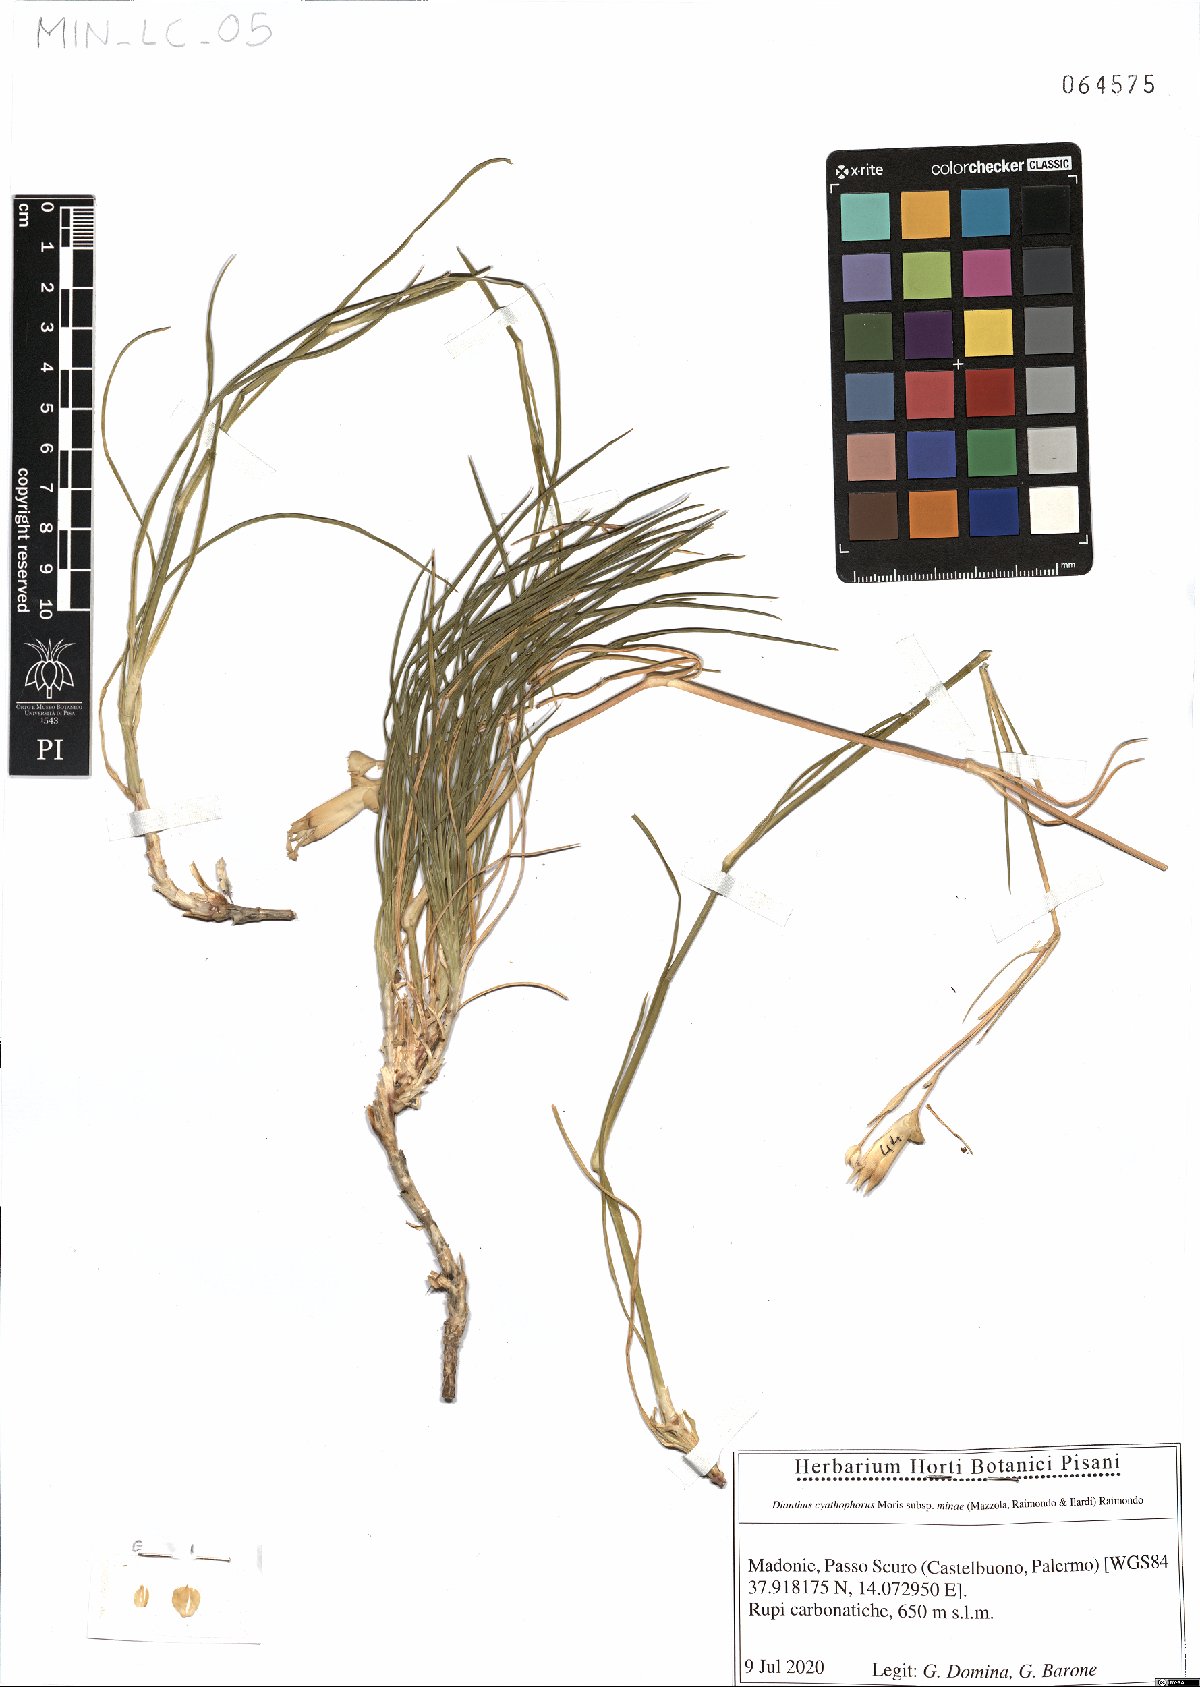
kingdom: Plantae
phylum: Tracheophyta
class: Magnoliopsida
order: Caryophyllales
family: Caryophyllaceae
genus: Dianthus
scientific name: Dianthus siculus
